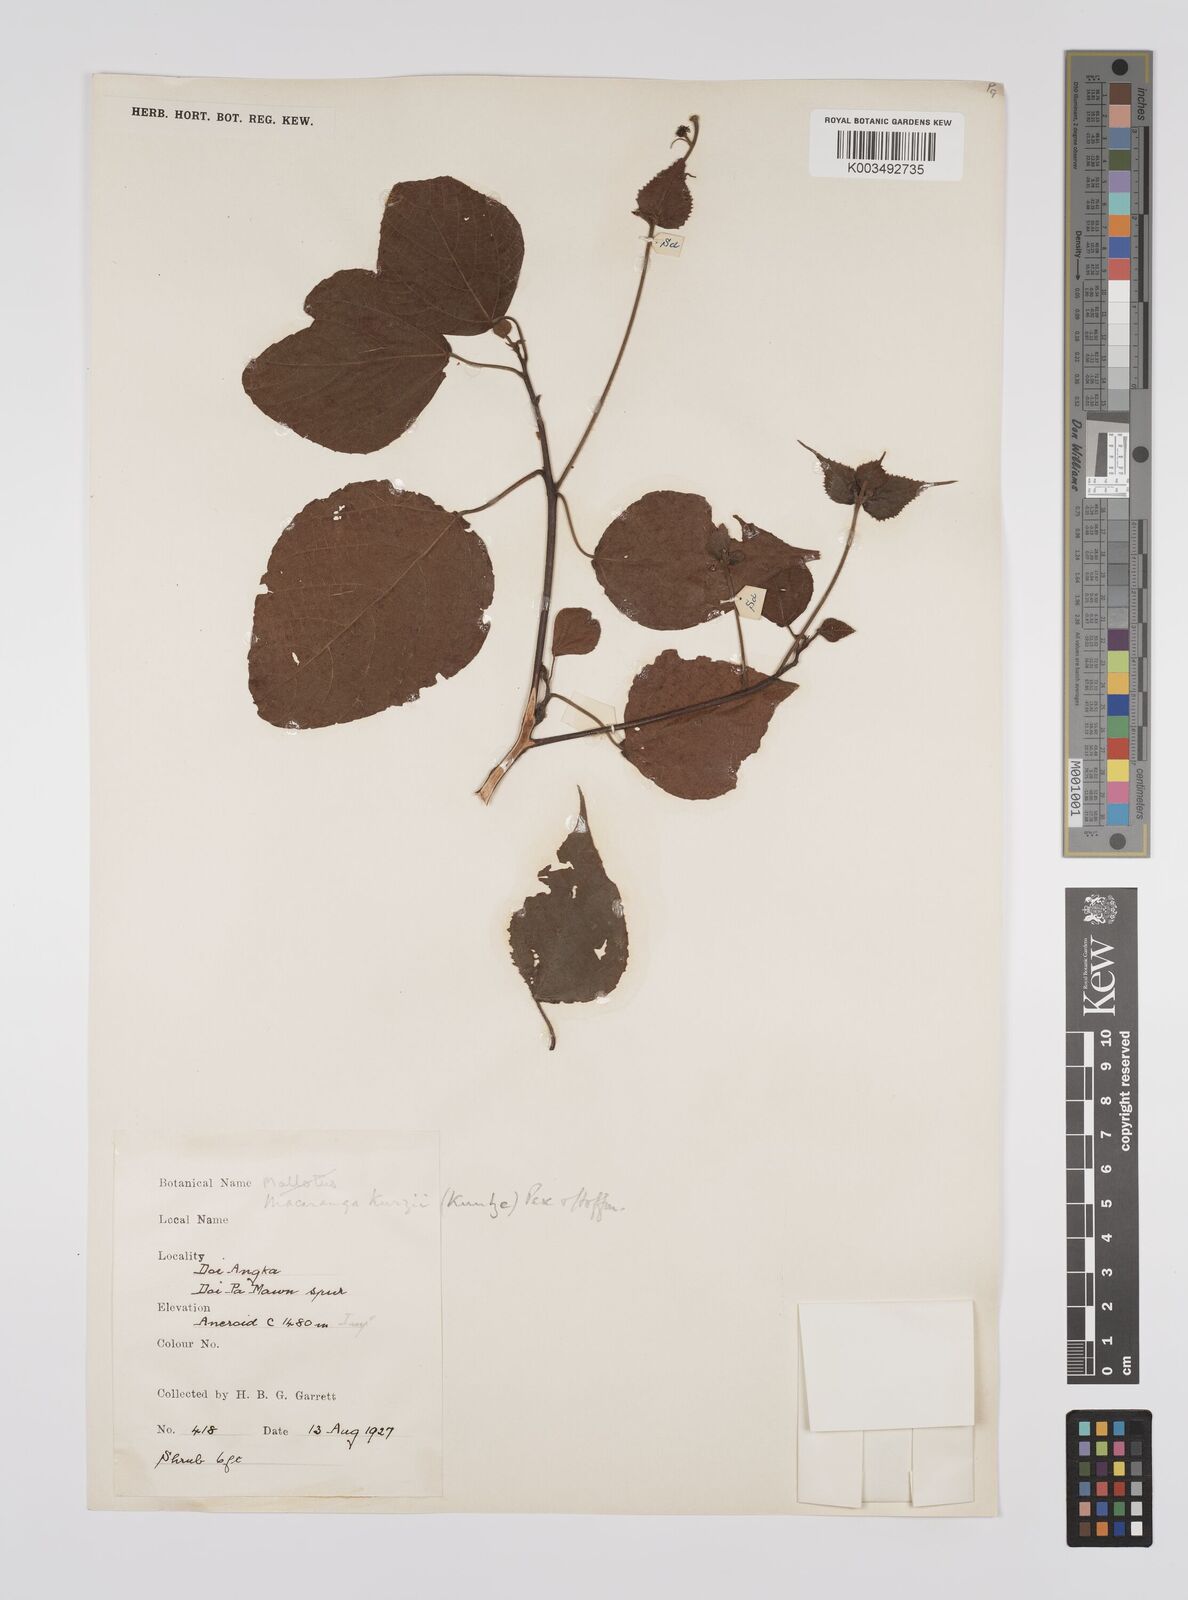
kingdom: Plantae
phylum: Tracheophyta
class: Magnoliopsida
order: Malpighiales
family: Euphorbiaceae
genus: Macaranga
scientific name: Macaranga kurzii
